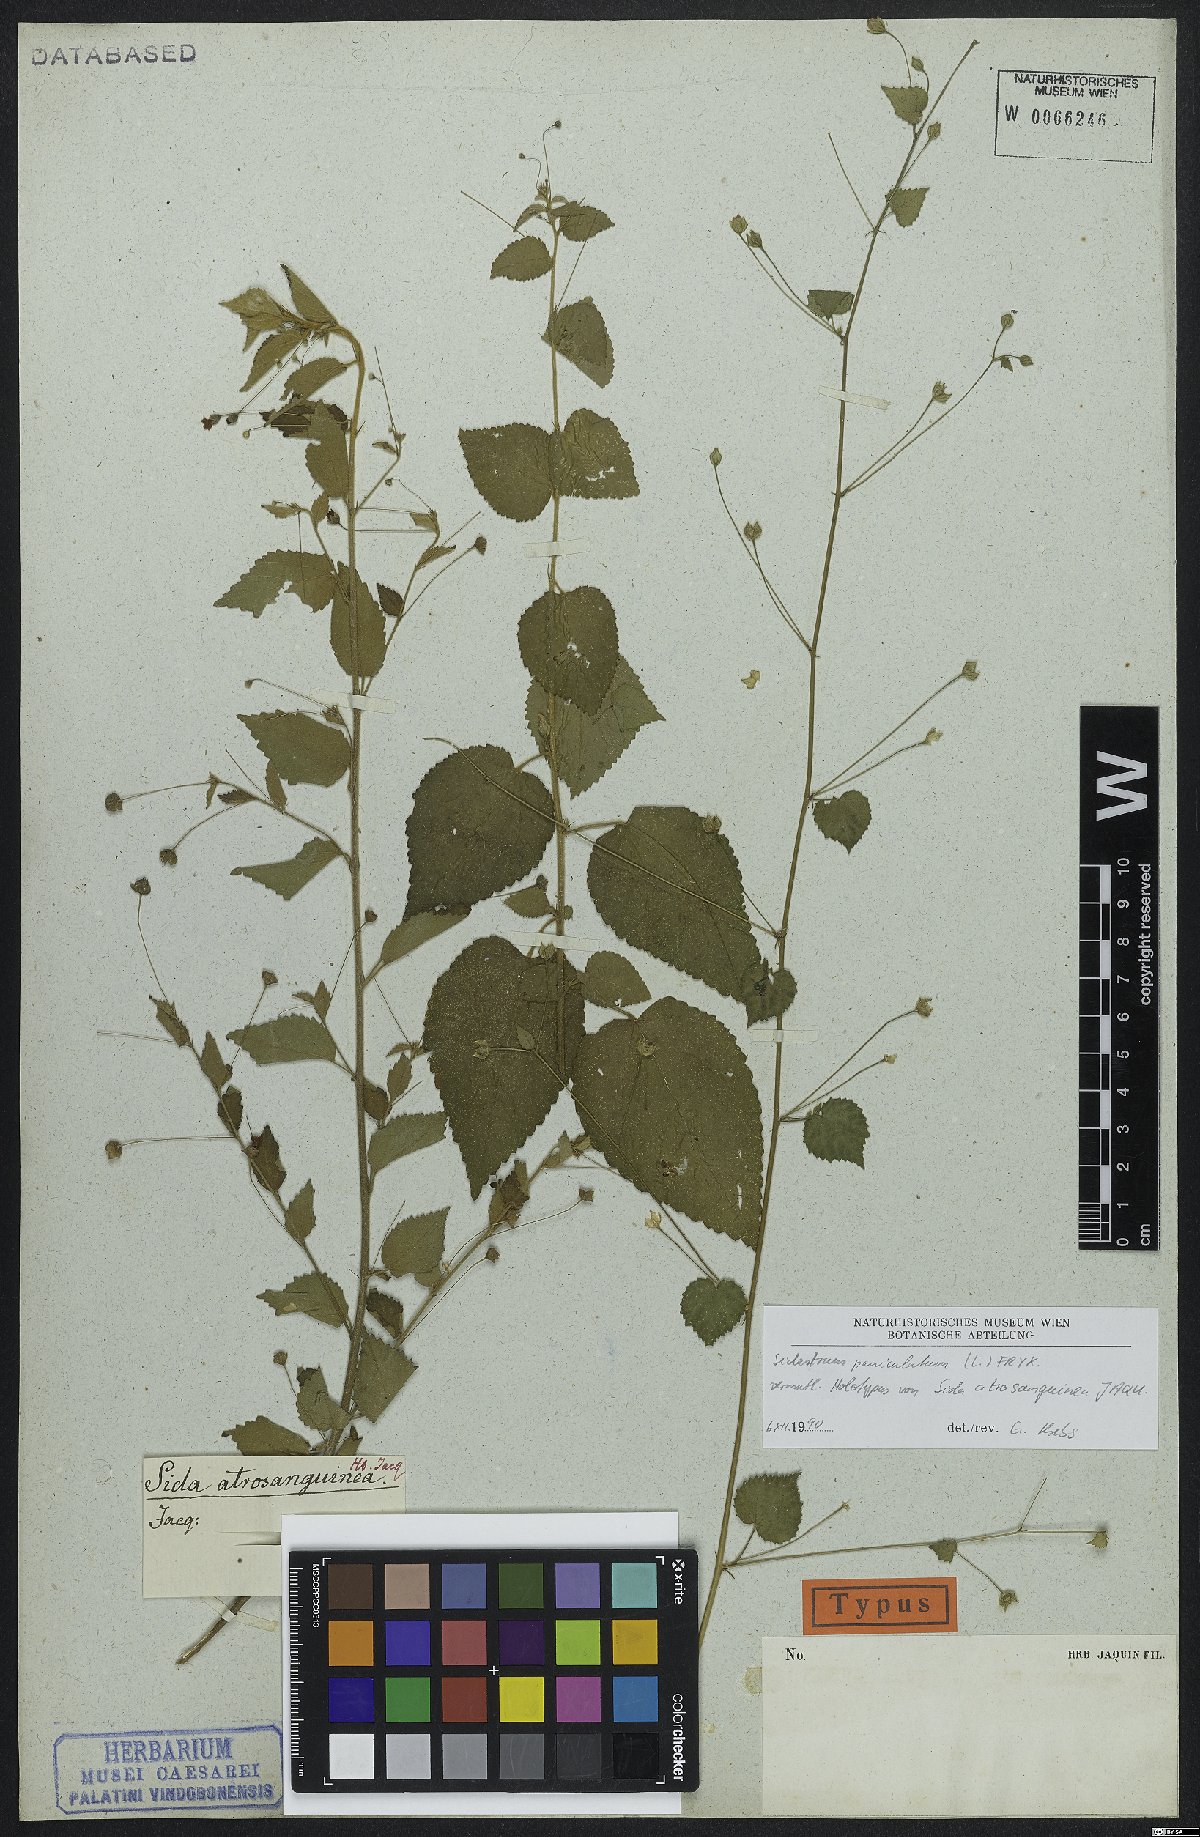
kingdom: Plantae
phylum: Tracheophyta
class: Magnoliopsida
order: Malvales
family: Malvaceae
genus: Sidastrum
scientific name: Sidastrum paniculatum
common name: Panicled sandmallow
